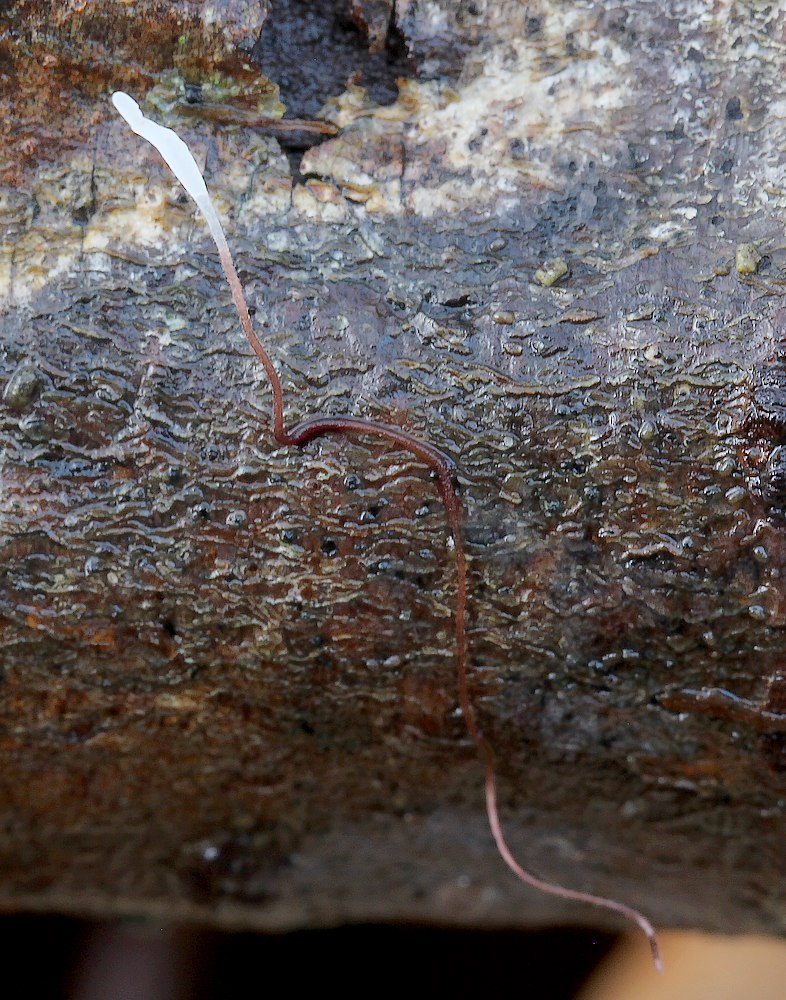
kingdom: Fungi
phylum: Basidiomycota
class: Agaricomycetes
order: Agaricales
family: Typhulaceae
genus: Typhula
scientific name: Typhula erythropus
